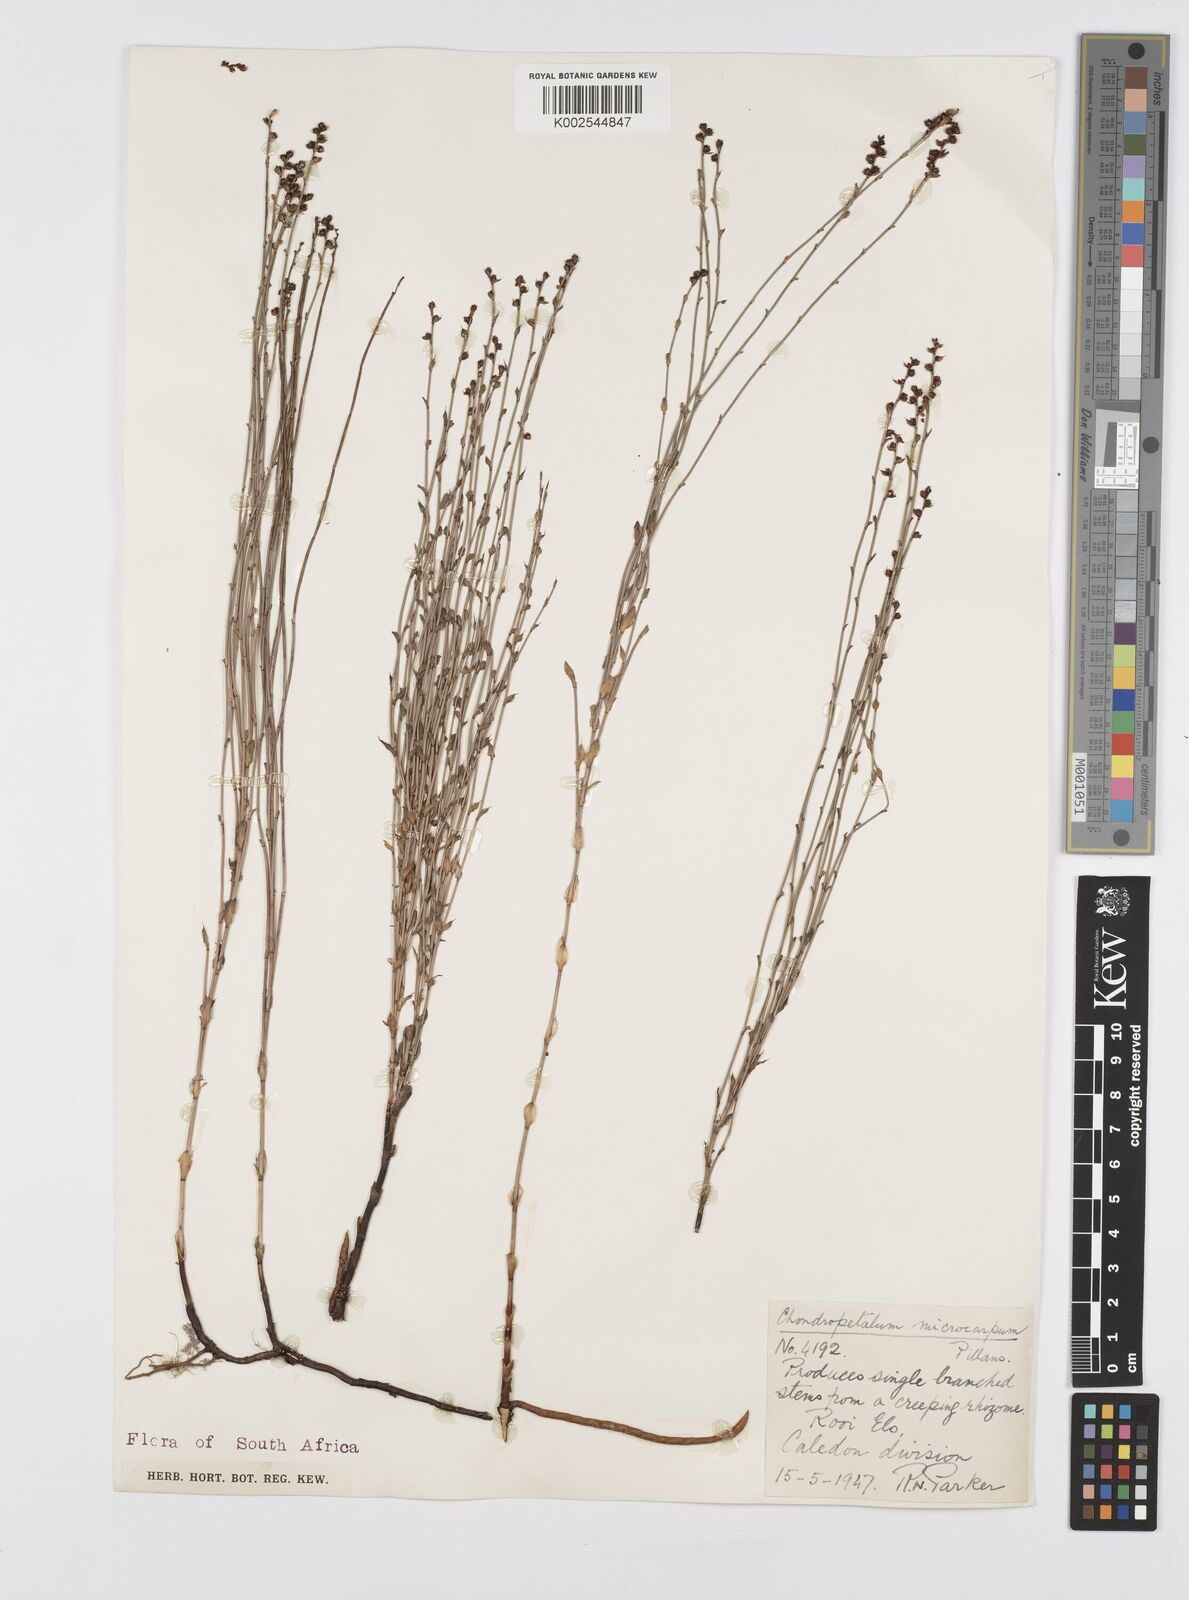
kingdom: Plantae
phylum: Tracheophyta
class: Liliopsida
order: Poales
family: Restionaceae
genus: Elegia
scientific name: Elegia microcarpa
